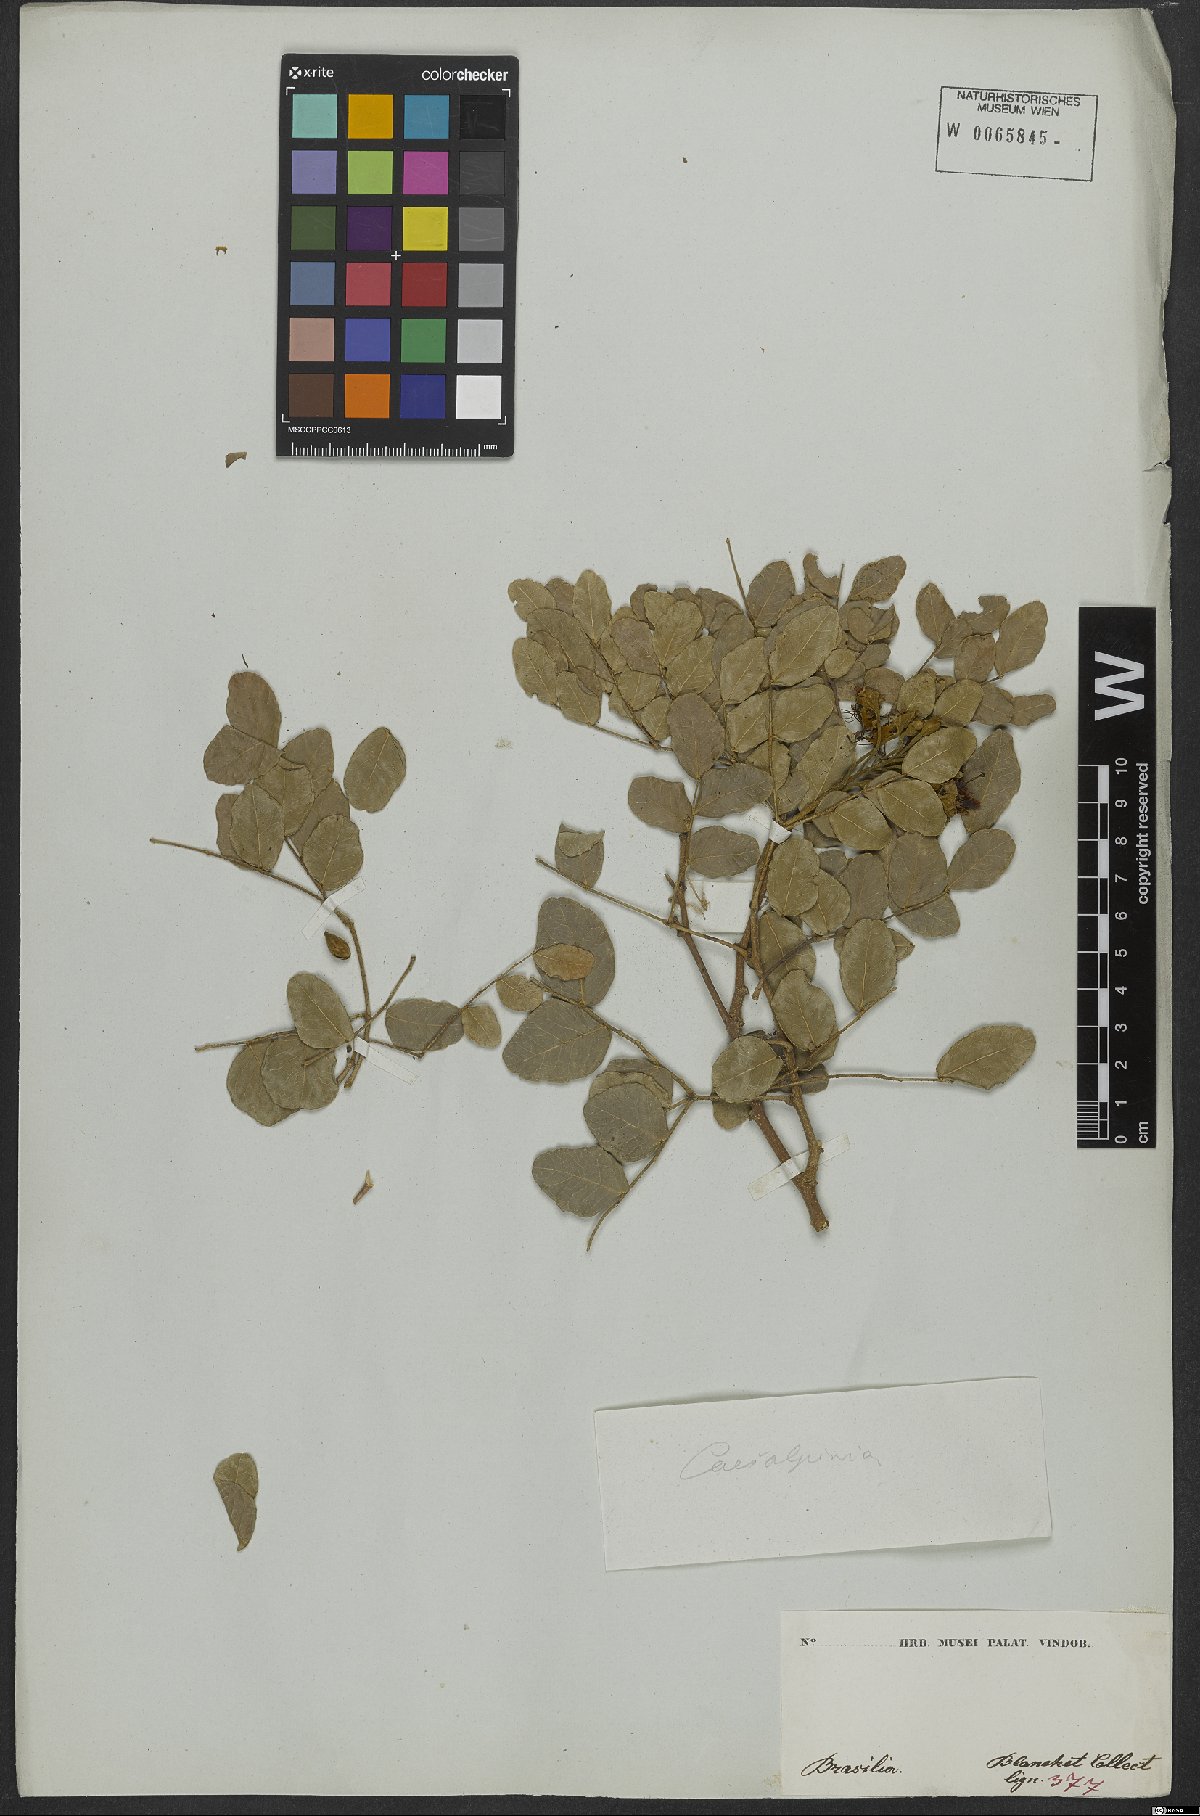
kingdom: Plantae
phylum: Tracheophyta
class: Magnoliopsida
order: Fabales
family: Fabaceae
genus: Caesalpinia
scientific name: Caesalpinia
